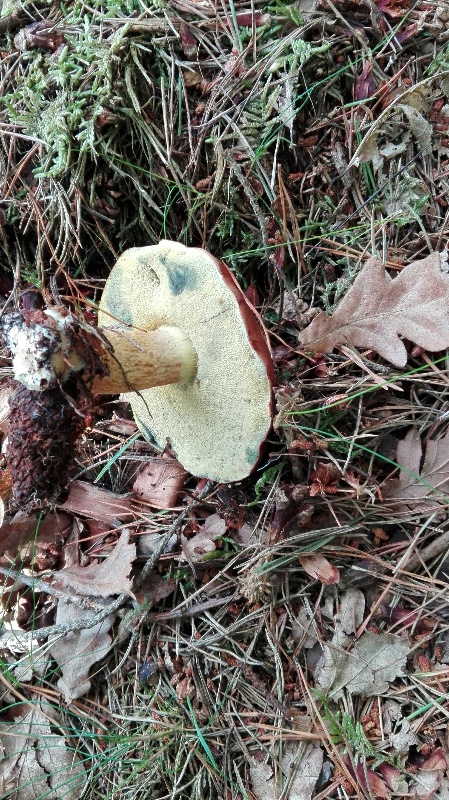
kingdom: Fungi
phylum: Basidiomycota
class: Agaricomycetes
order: Boletales
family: Boletaceae
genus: Imleria
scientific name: Imleria badia
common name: brunstokket rørhat
